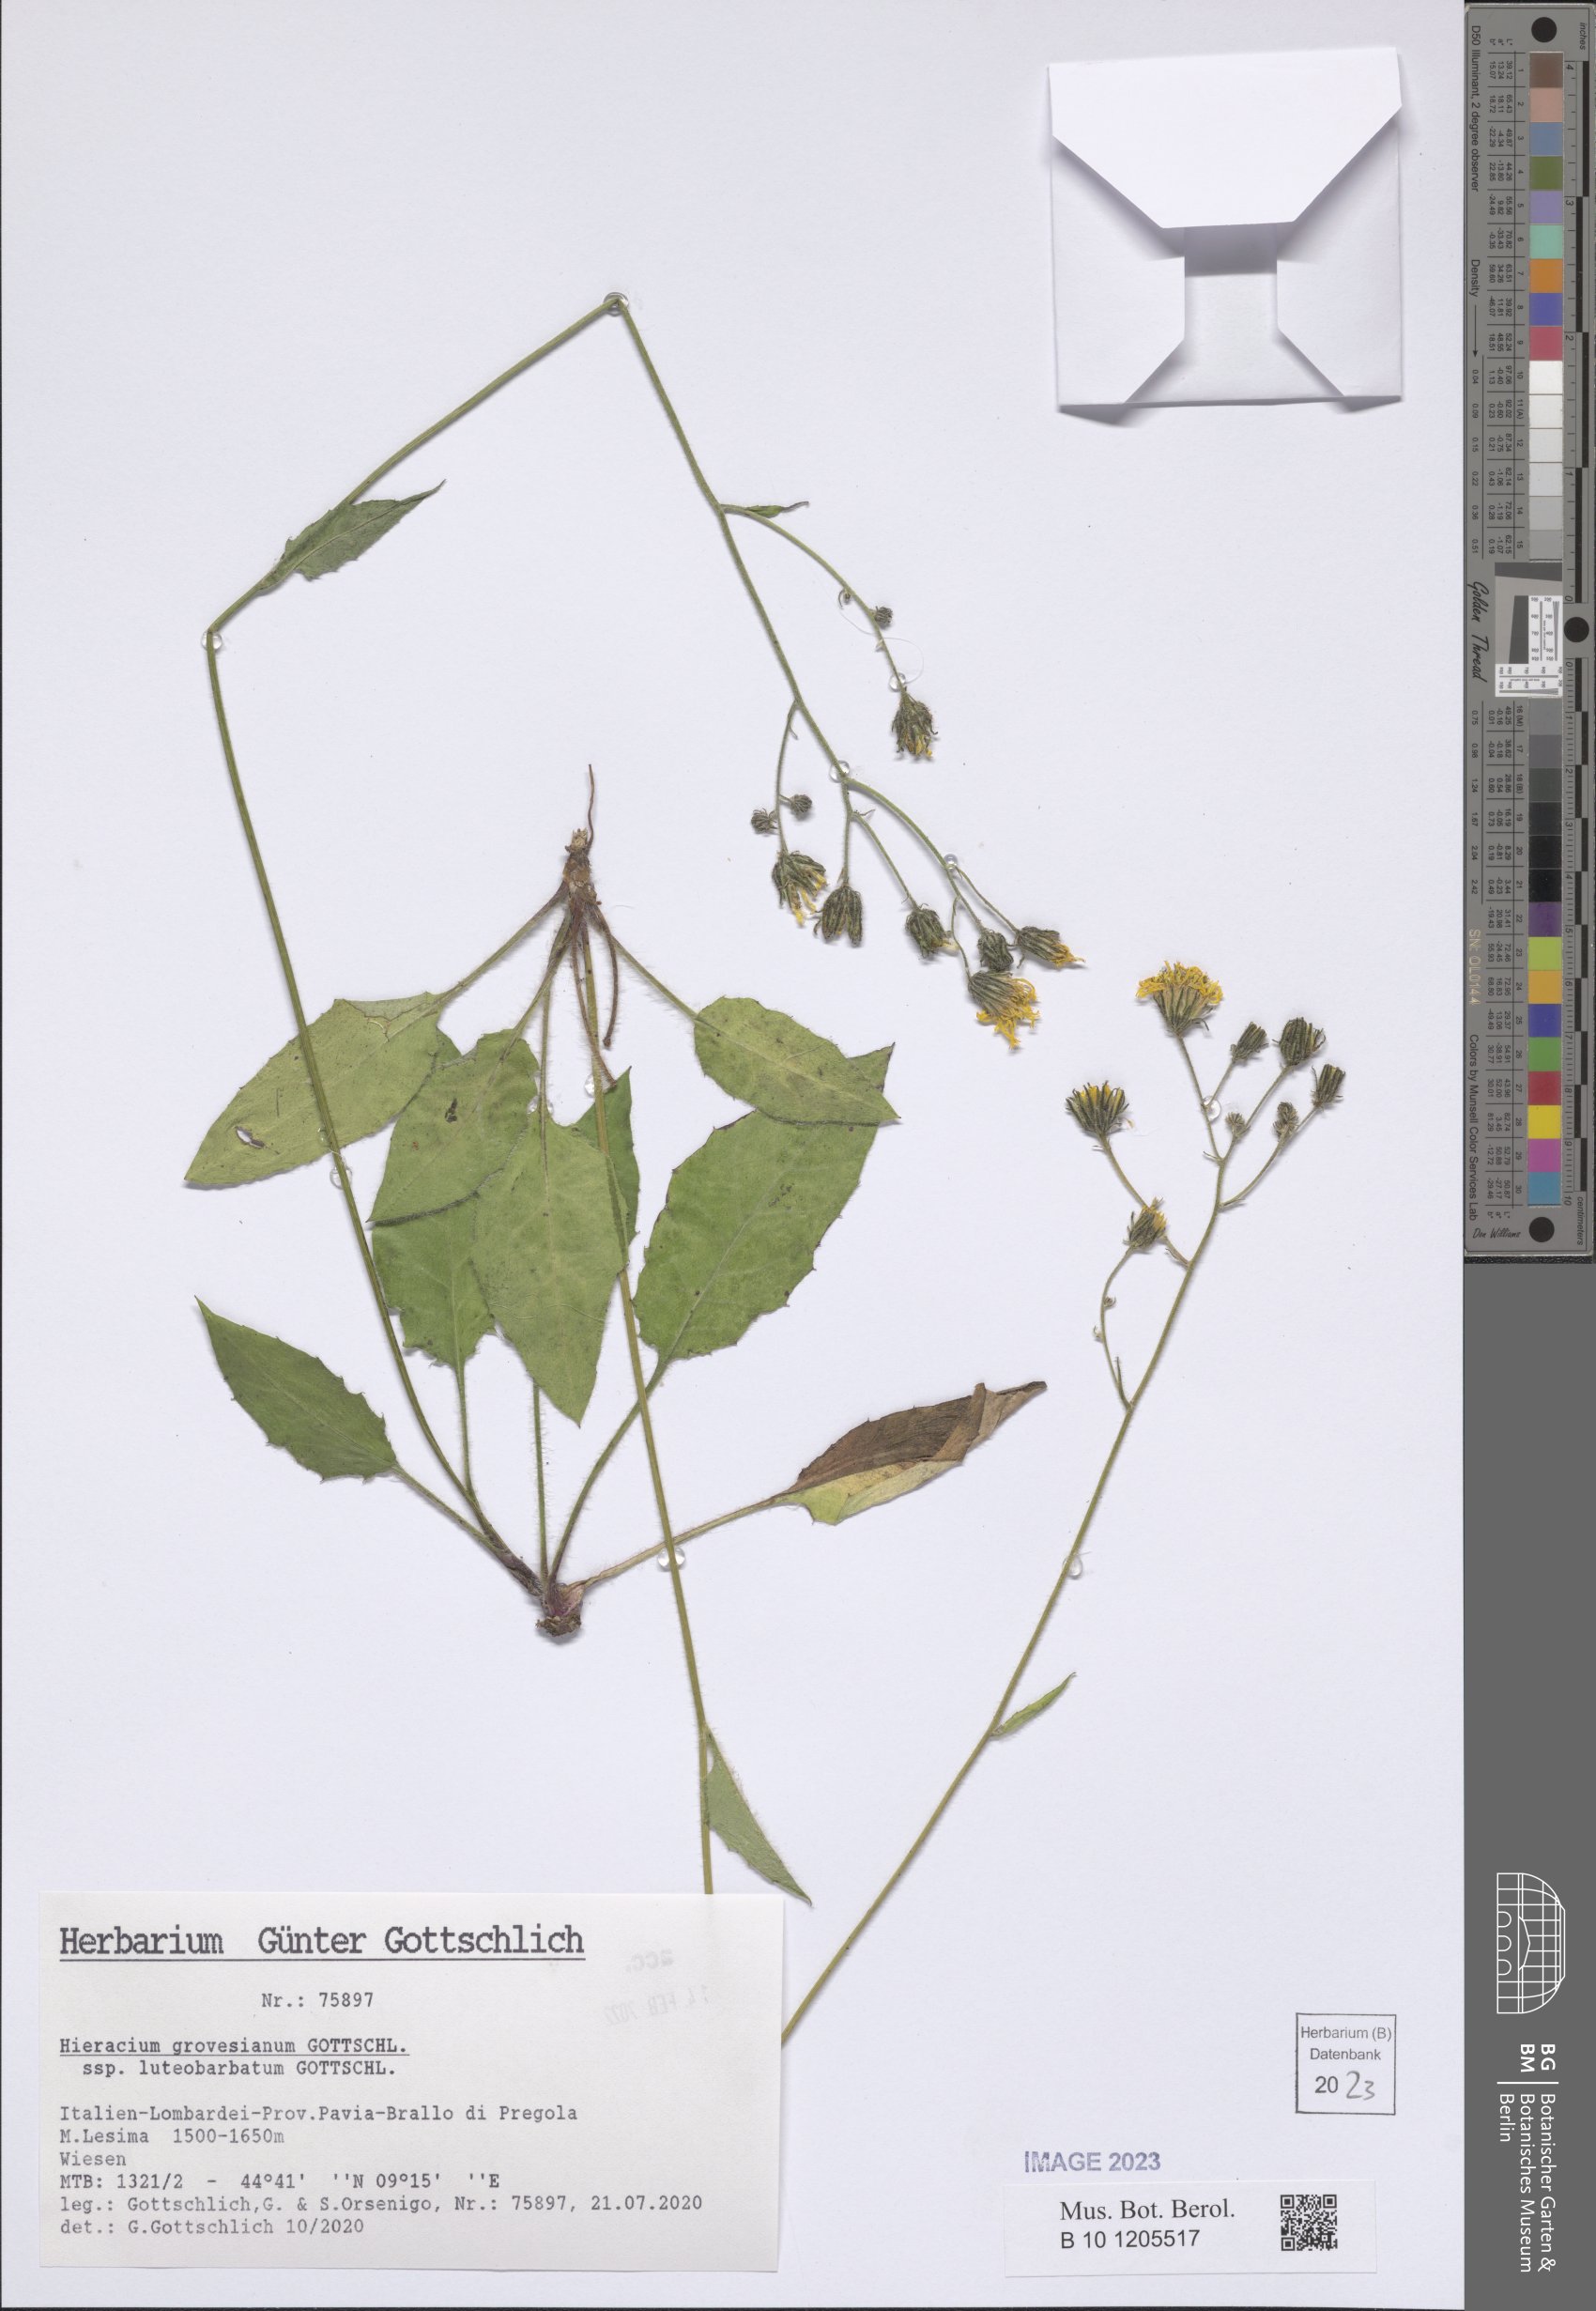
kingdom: Plantae
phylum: Tracheophyta
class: Magnoliopsida
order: Asterales
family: Asteraceae
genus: Hieracium
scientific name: Hieracium grovesianum
